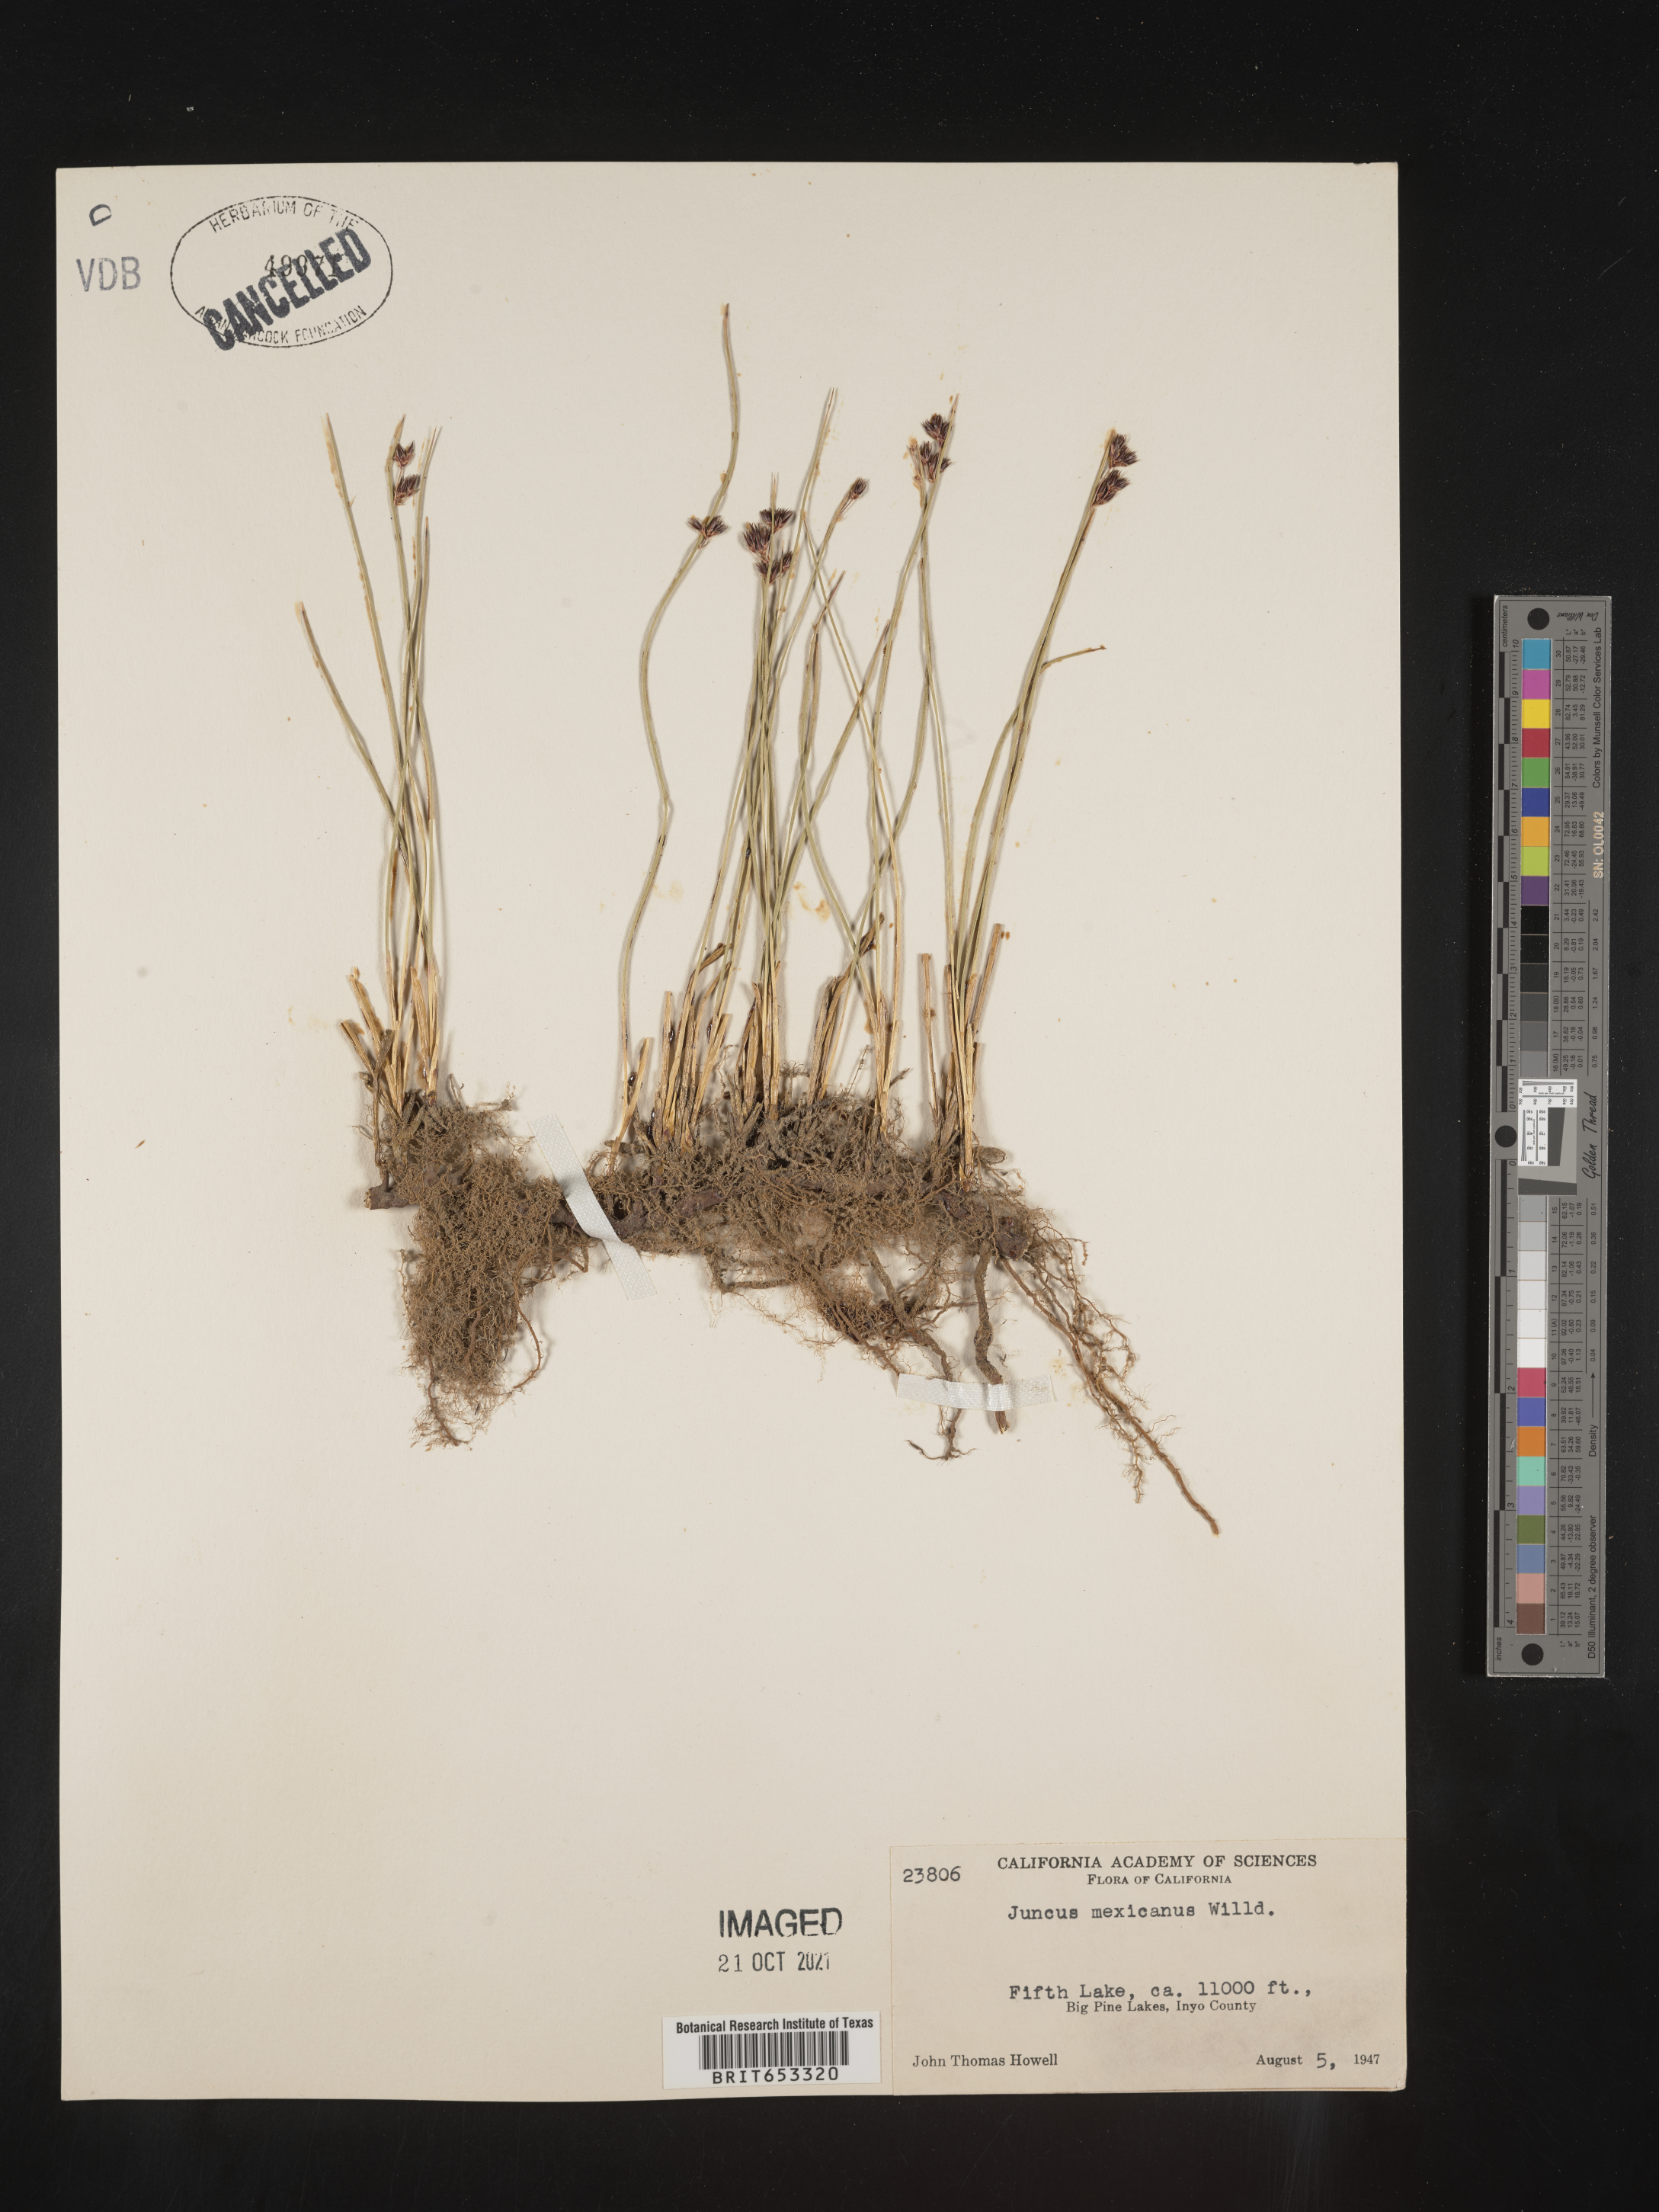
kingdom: Plantae
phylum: Tracheophyta
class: Liliopsida
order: Poales
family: Juncaceae
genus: Juncus
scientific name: Juncus balticus
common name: Baltic rush
